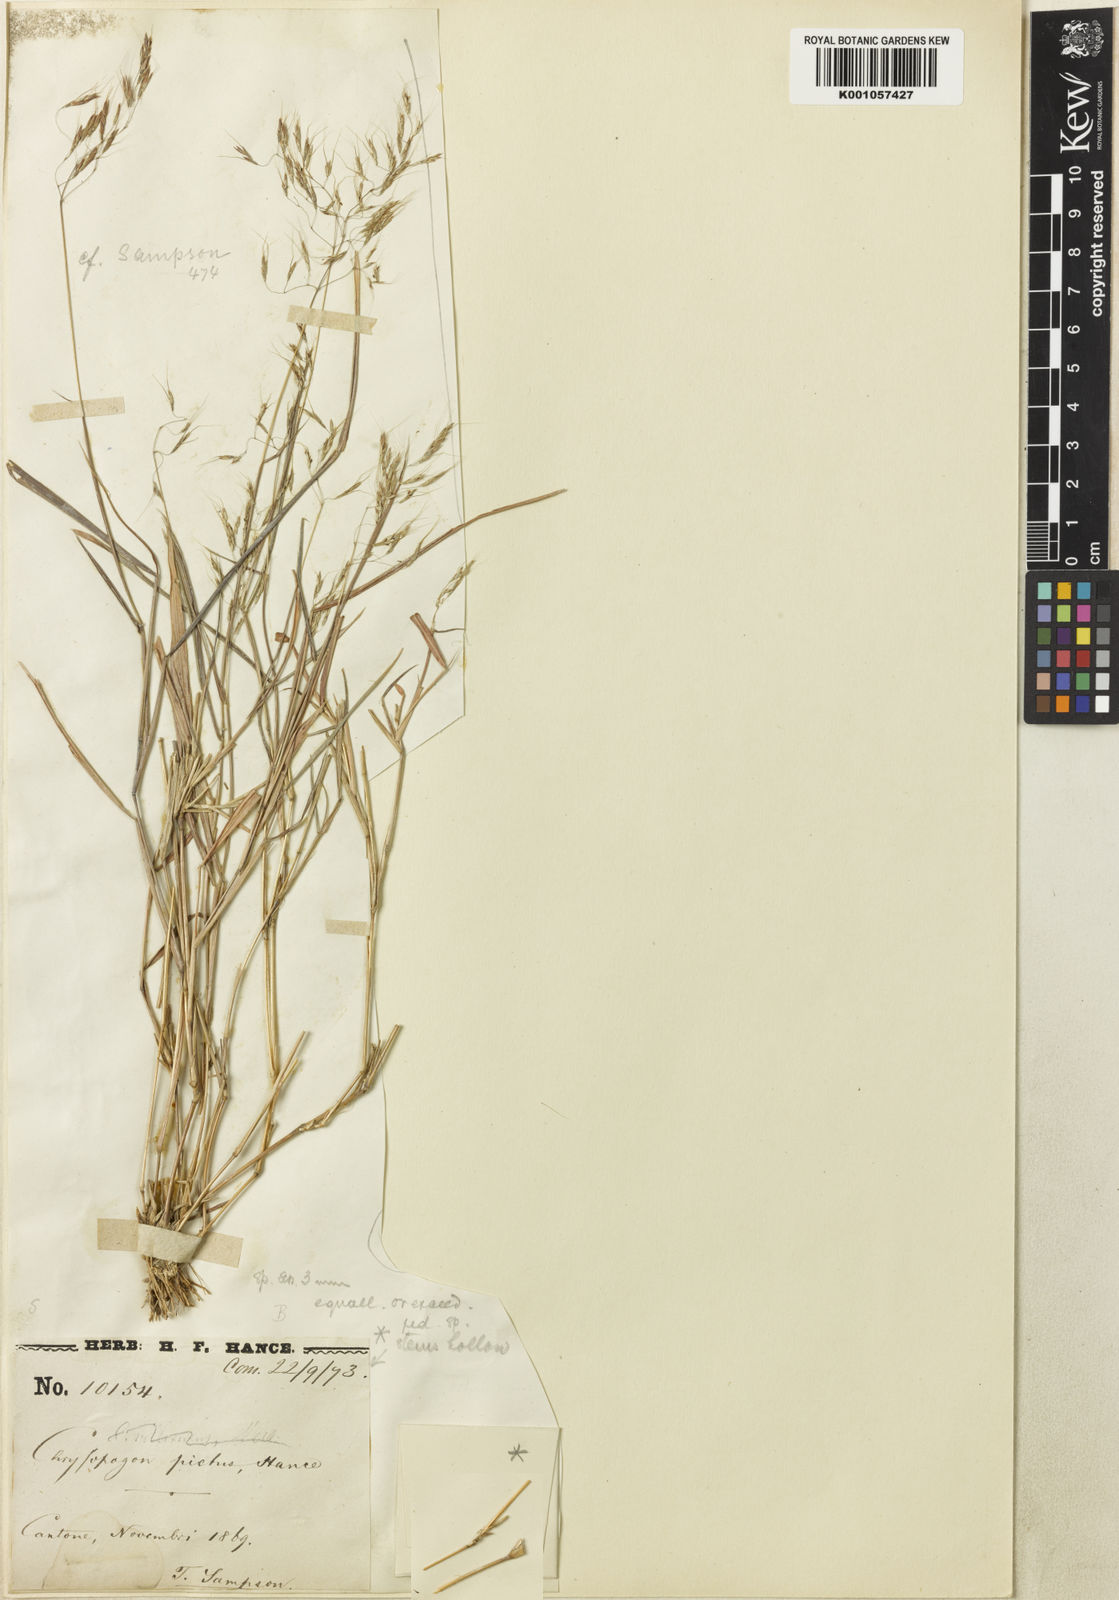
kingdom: Plantae
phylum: Tracheophyta
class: Liliopsida
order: Poales
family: Poaceae
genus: Capillipedium
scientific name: Capillipedium parviflorum
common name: Golden-beard
